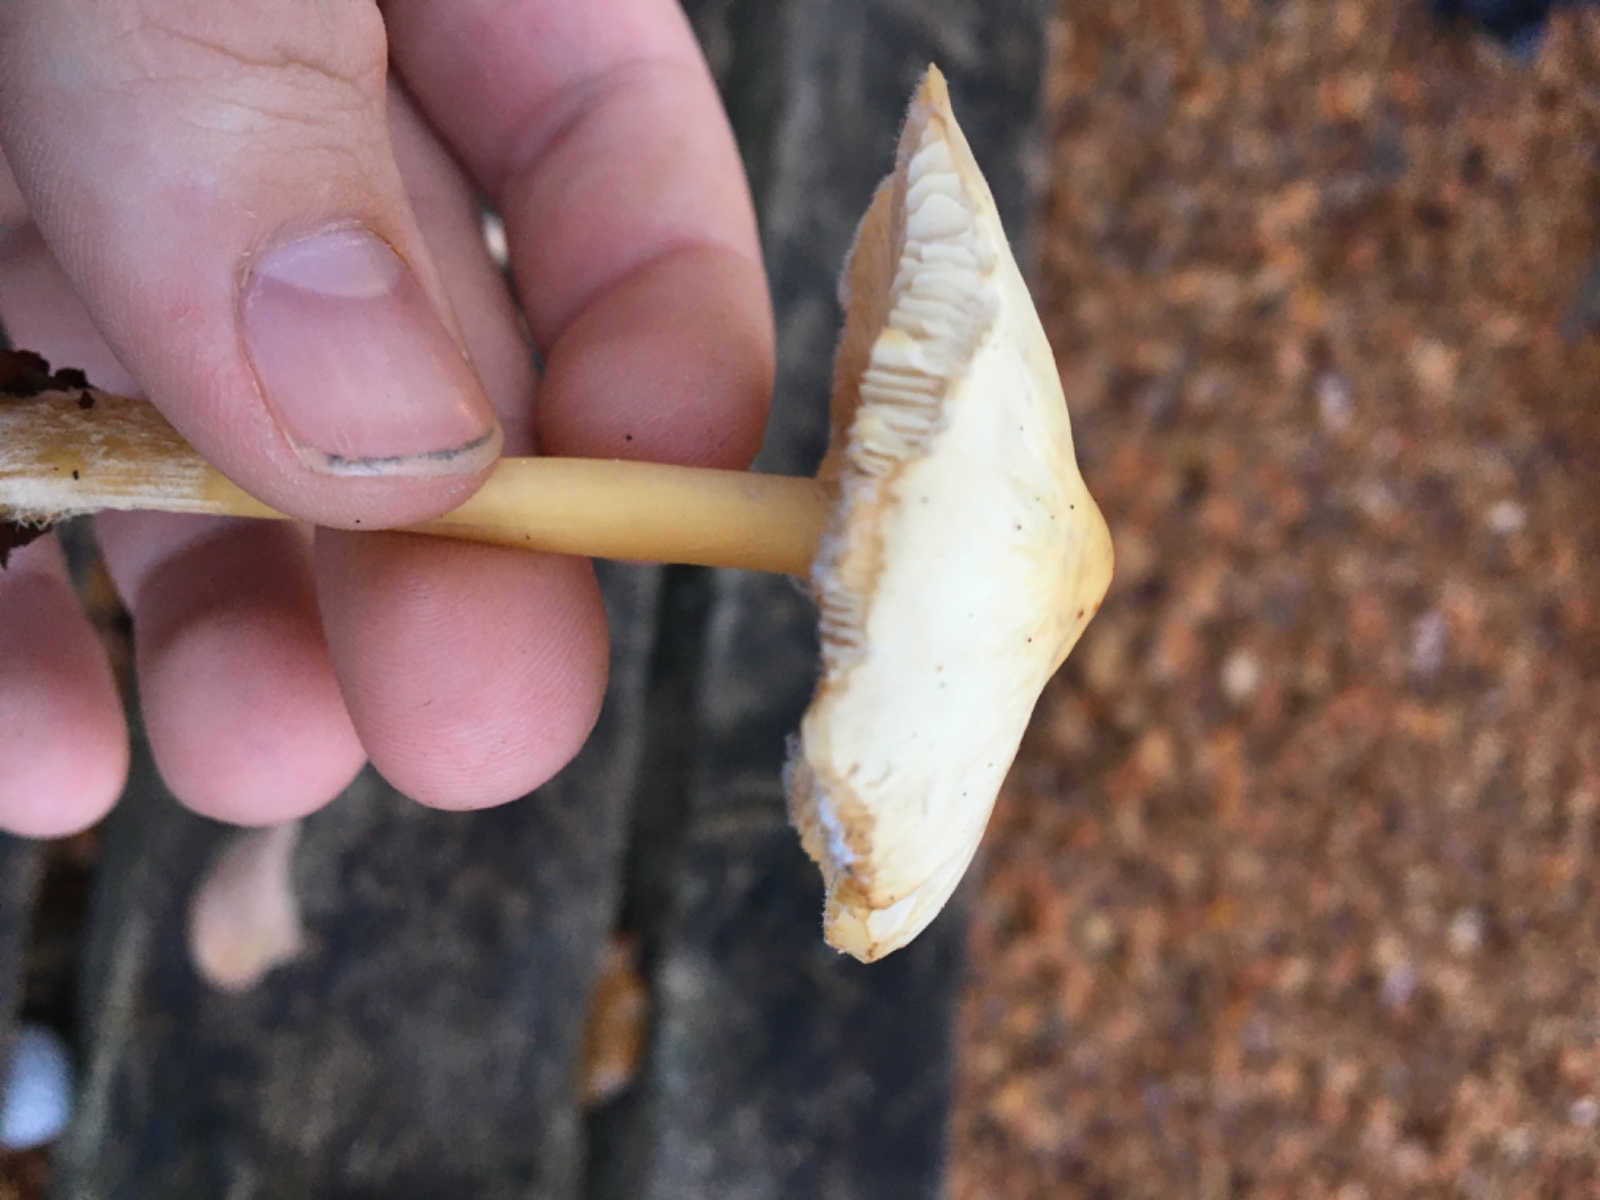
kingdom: Fungi
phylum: Basidiomycota
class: Agaricomycetes
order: Agaricales
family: Omphalotaceae
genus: Gymnopus
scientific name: Gymnopus
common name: fladhat
